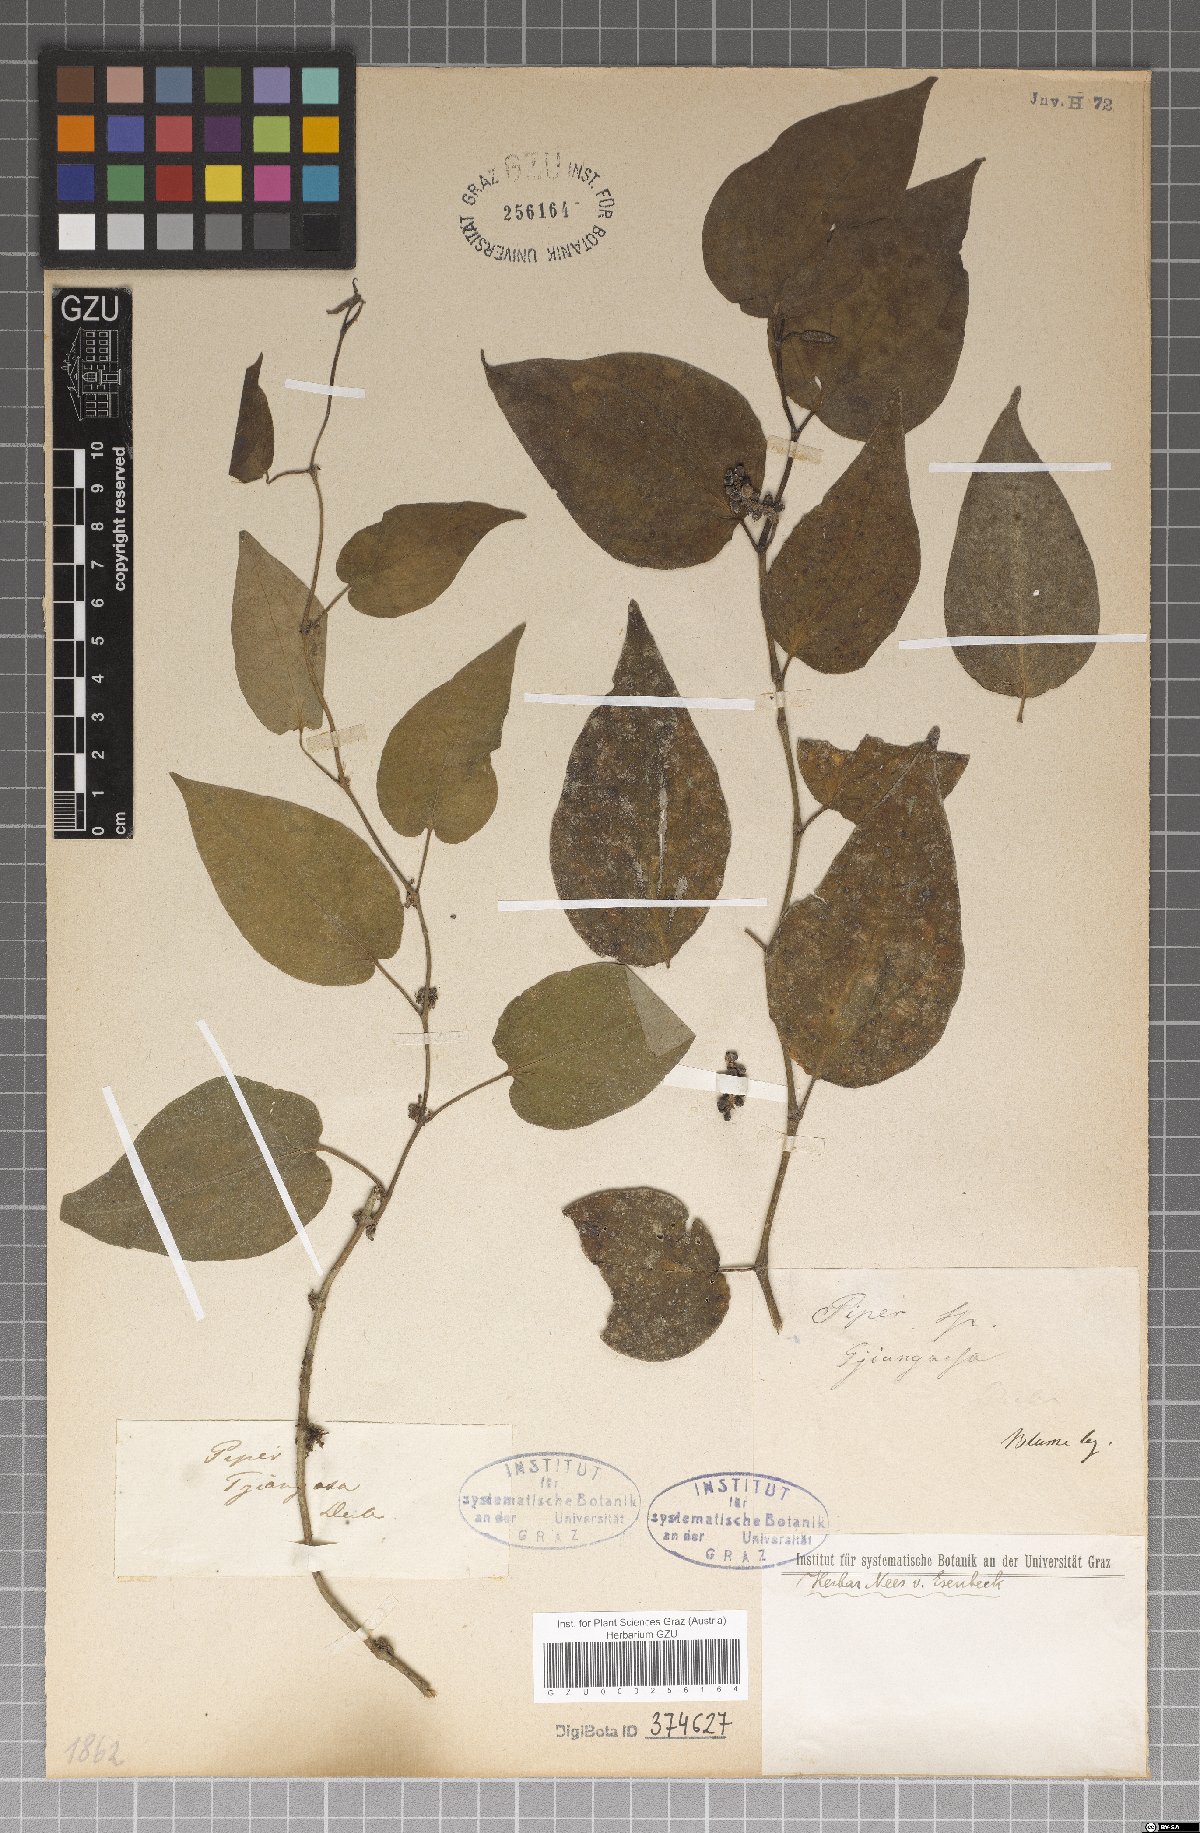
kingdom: Plantae
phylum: Tracheophyta
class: Magnoliopsida
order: Piperales
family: Piperaceae
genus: Piper
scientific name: Piper
